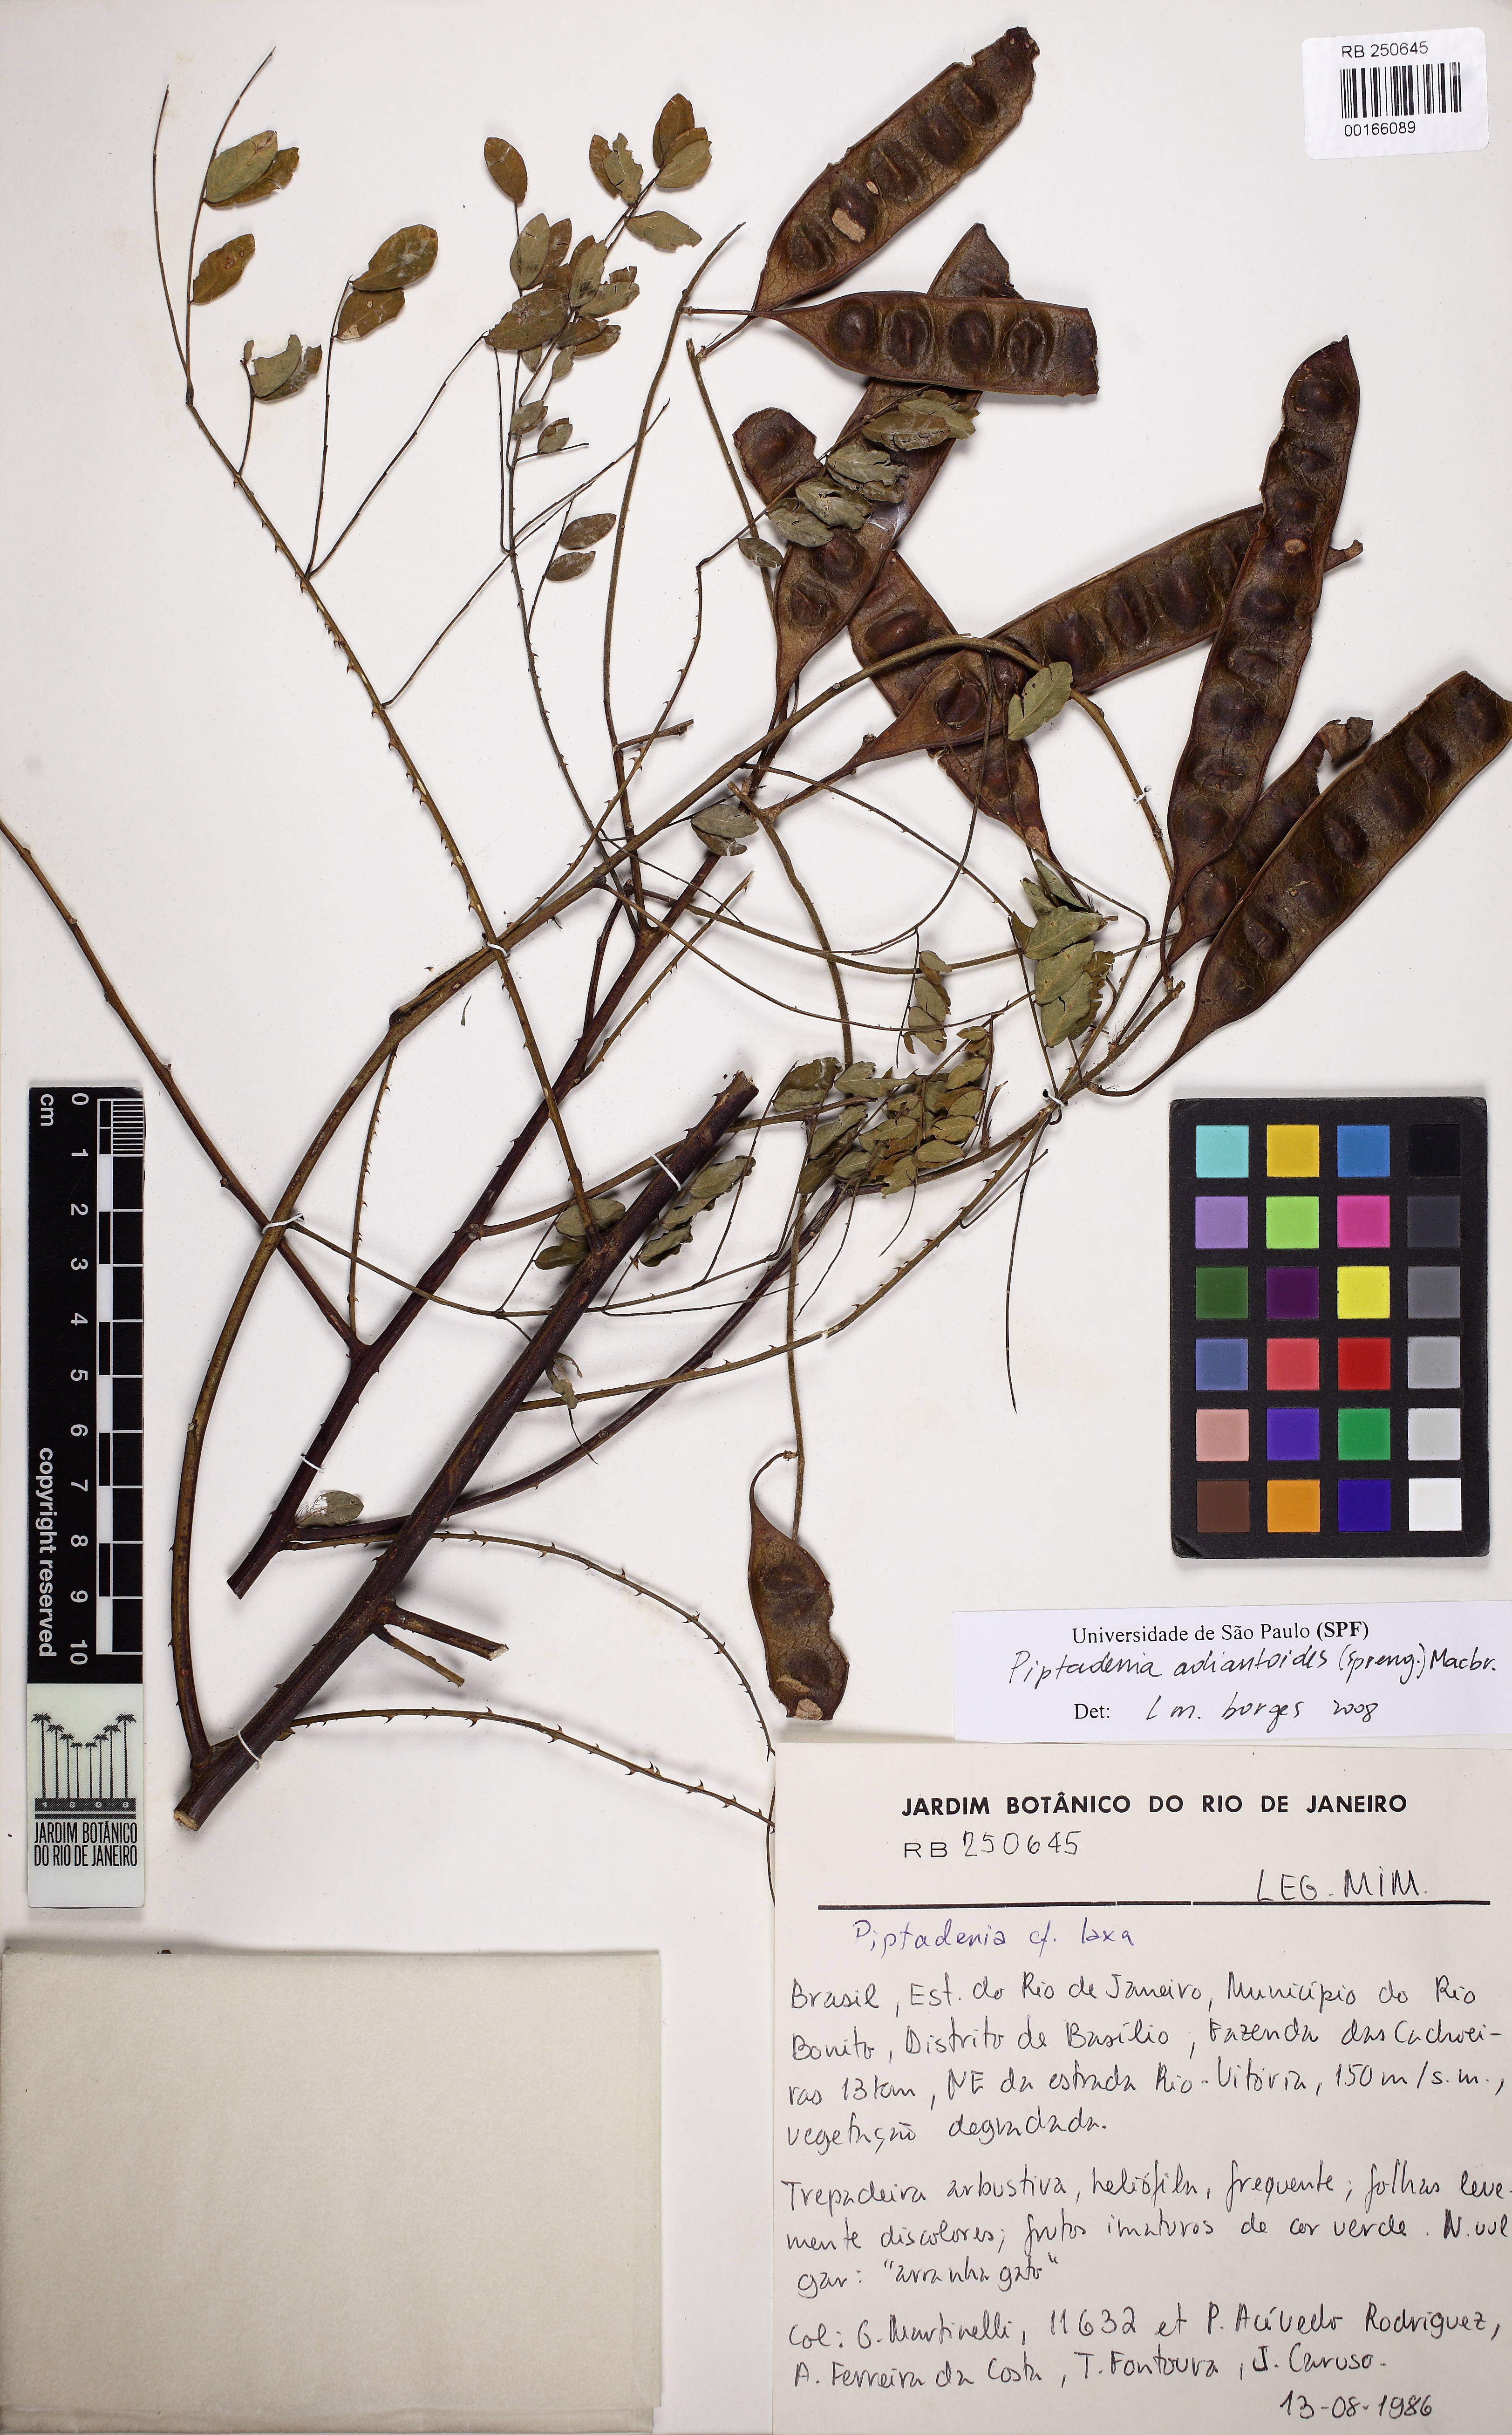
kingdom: Plantae
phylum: Tracheophyta
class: Magnoliopsida
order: Fabales
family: Fabaceae
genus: Piptadenia
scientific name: Piptadenia adiantoides
